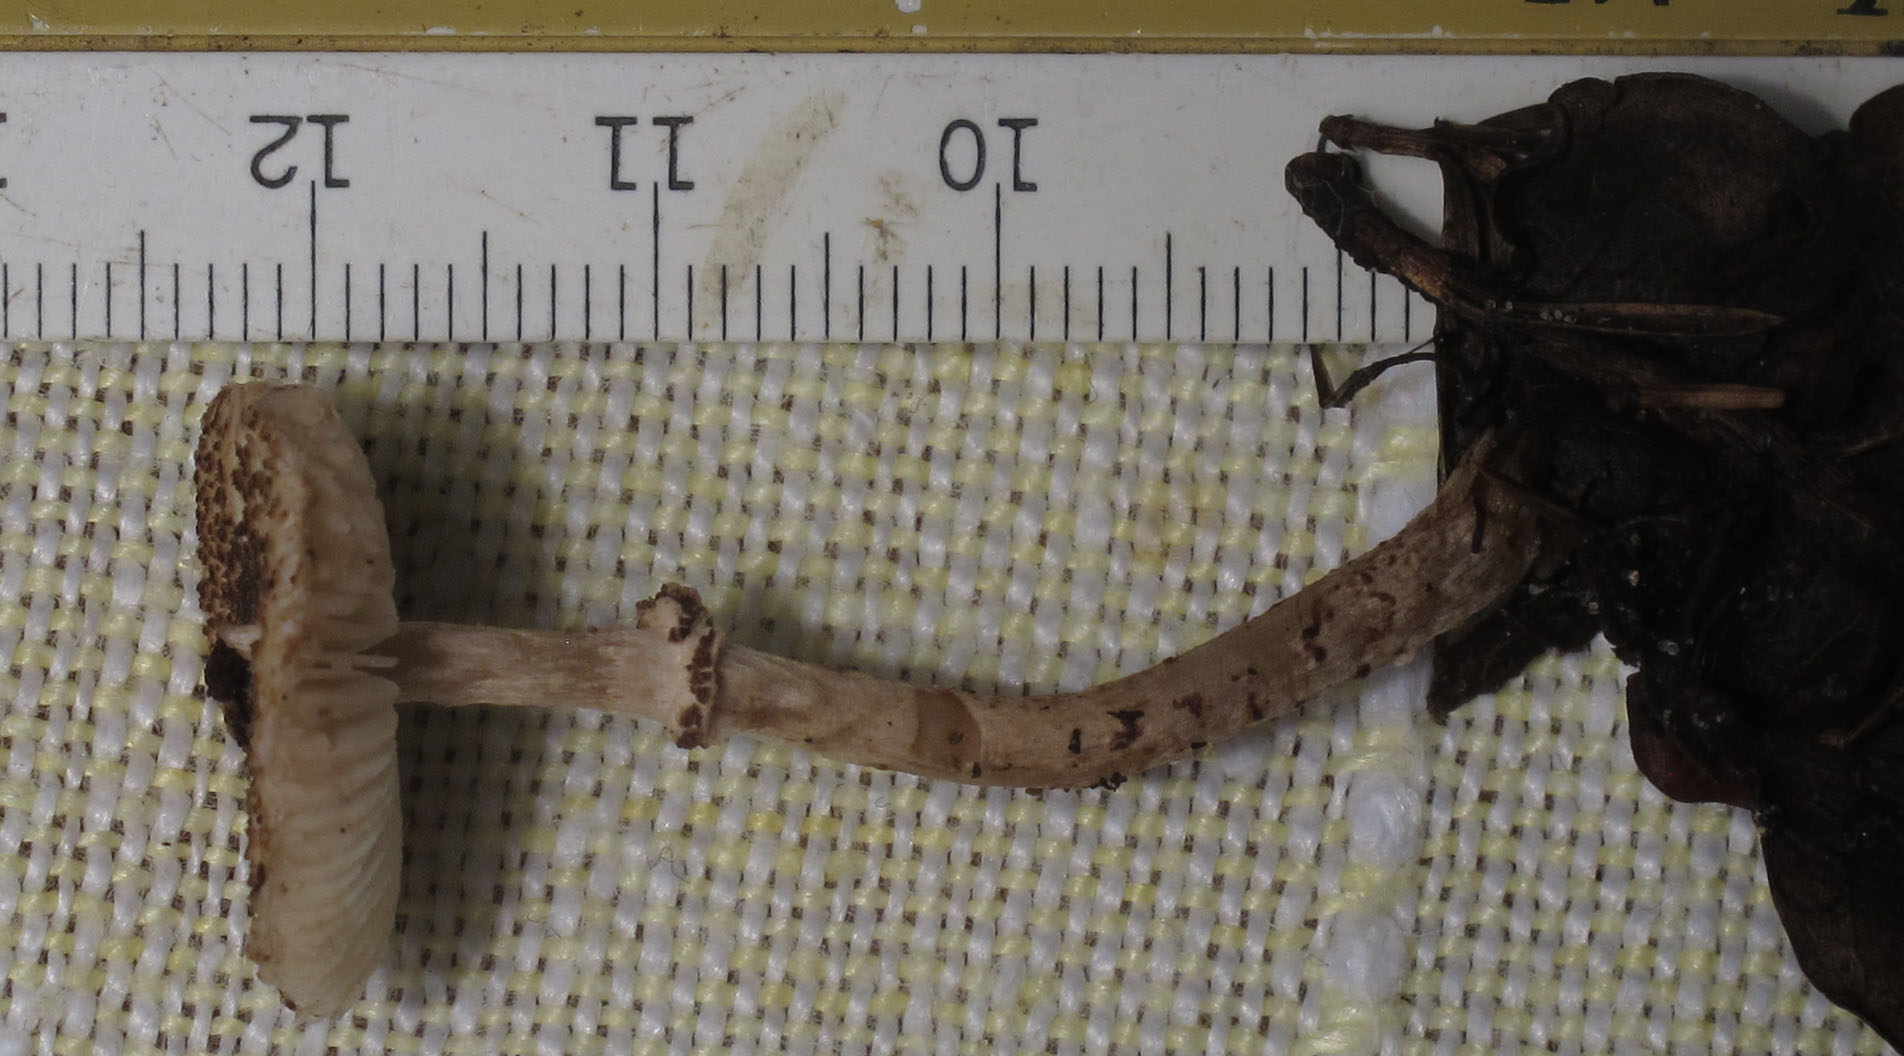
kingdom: Fungi
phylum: Basidiomycota
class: Agaricomycetes
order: Agaricales
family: Agaricaceae
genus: Lepiota
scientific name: Lepiota felina
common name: sortskællet parasolhat
